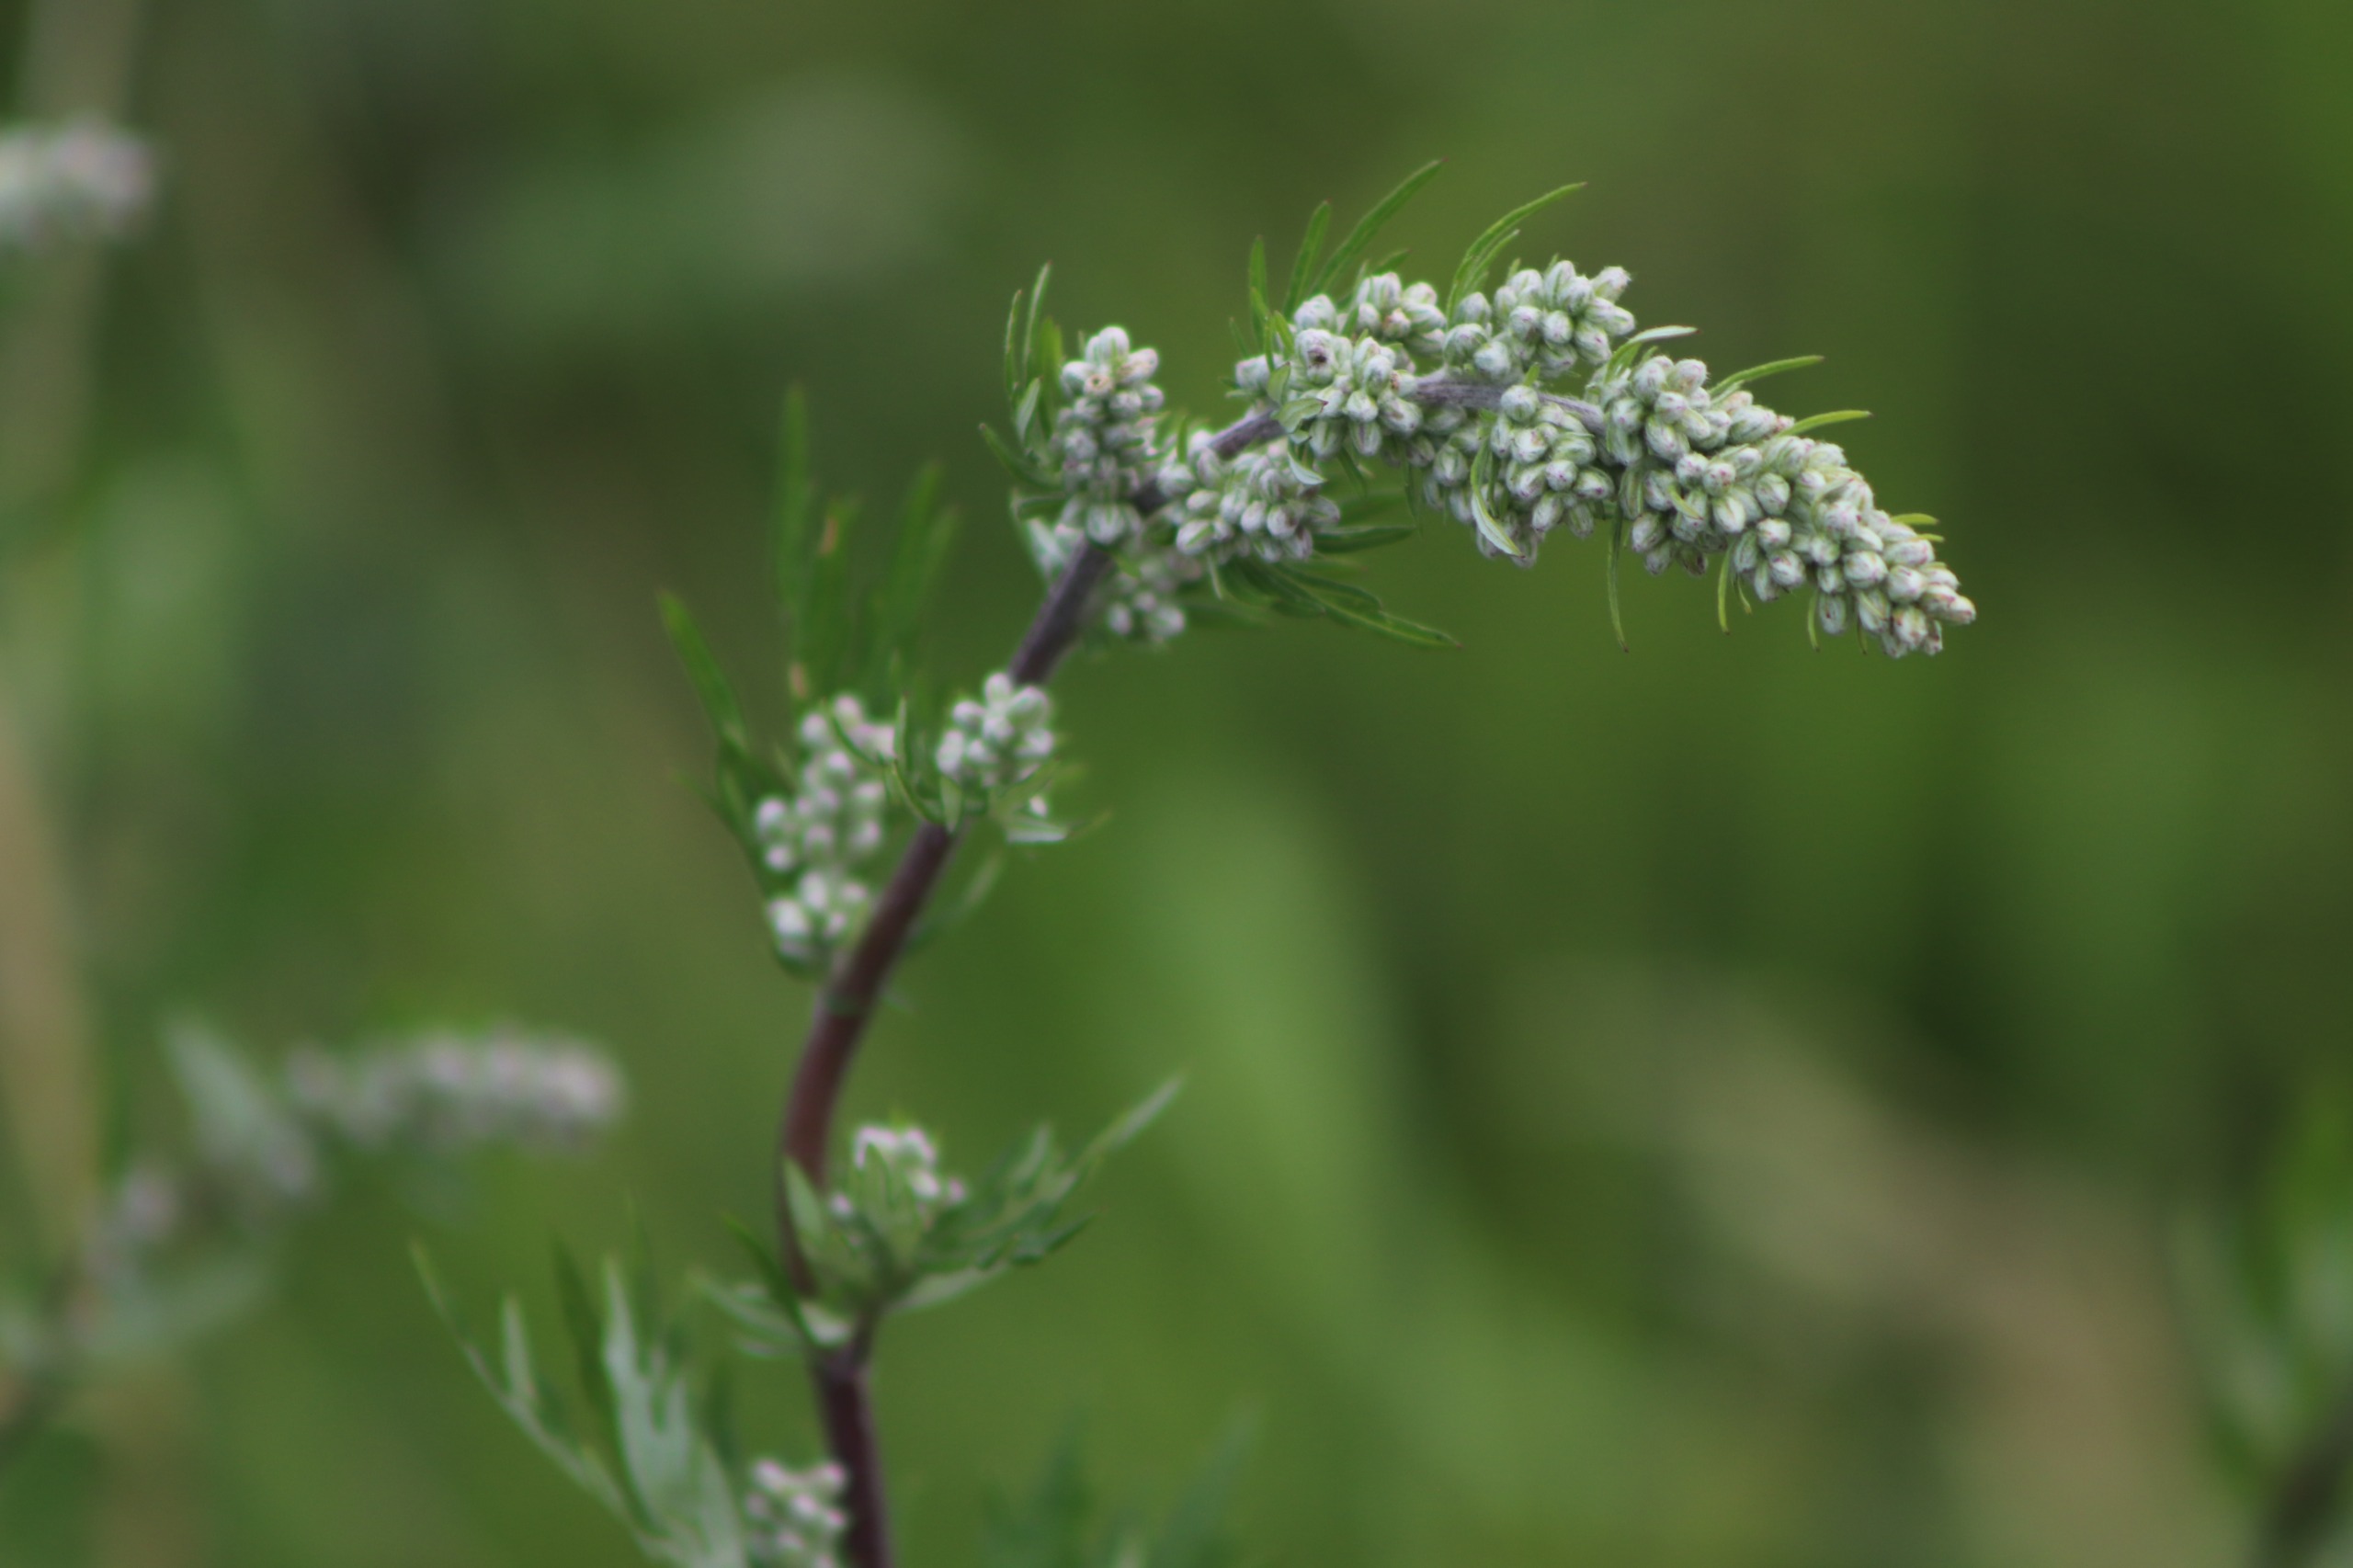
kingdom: Plantae
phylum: Tracheophyta
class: Magnoliopsida
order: Asterales
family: Asteraceae
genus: Artemisia
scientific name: Artemisia vulgaris
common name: Grå-bynke
